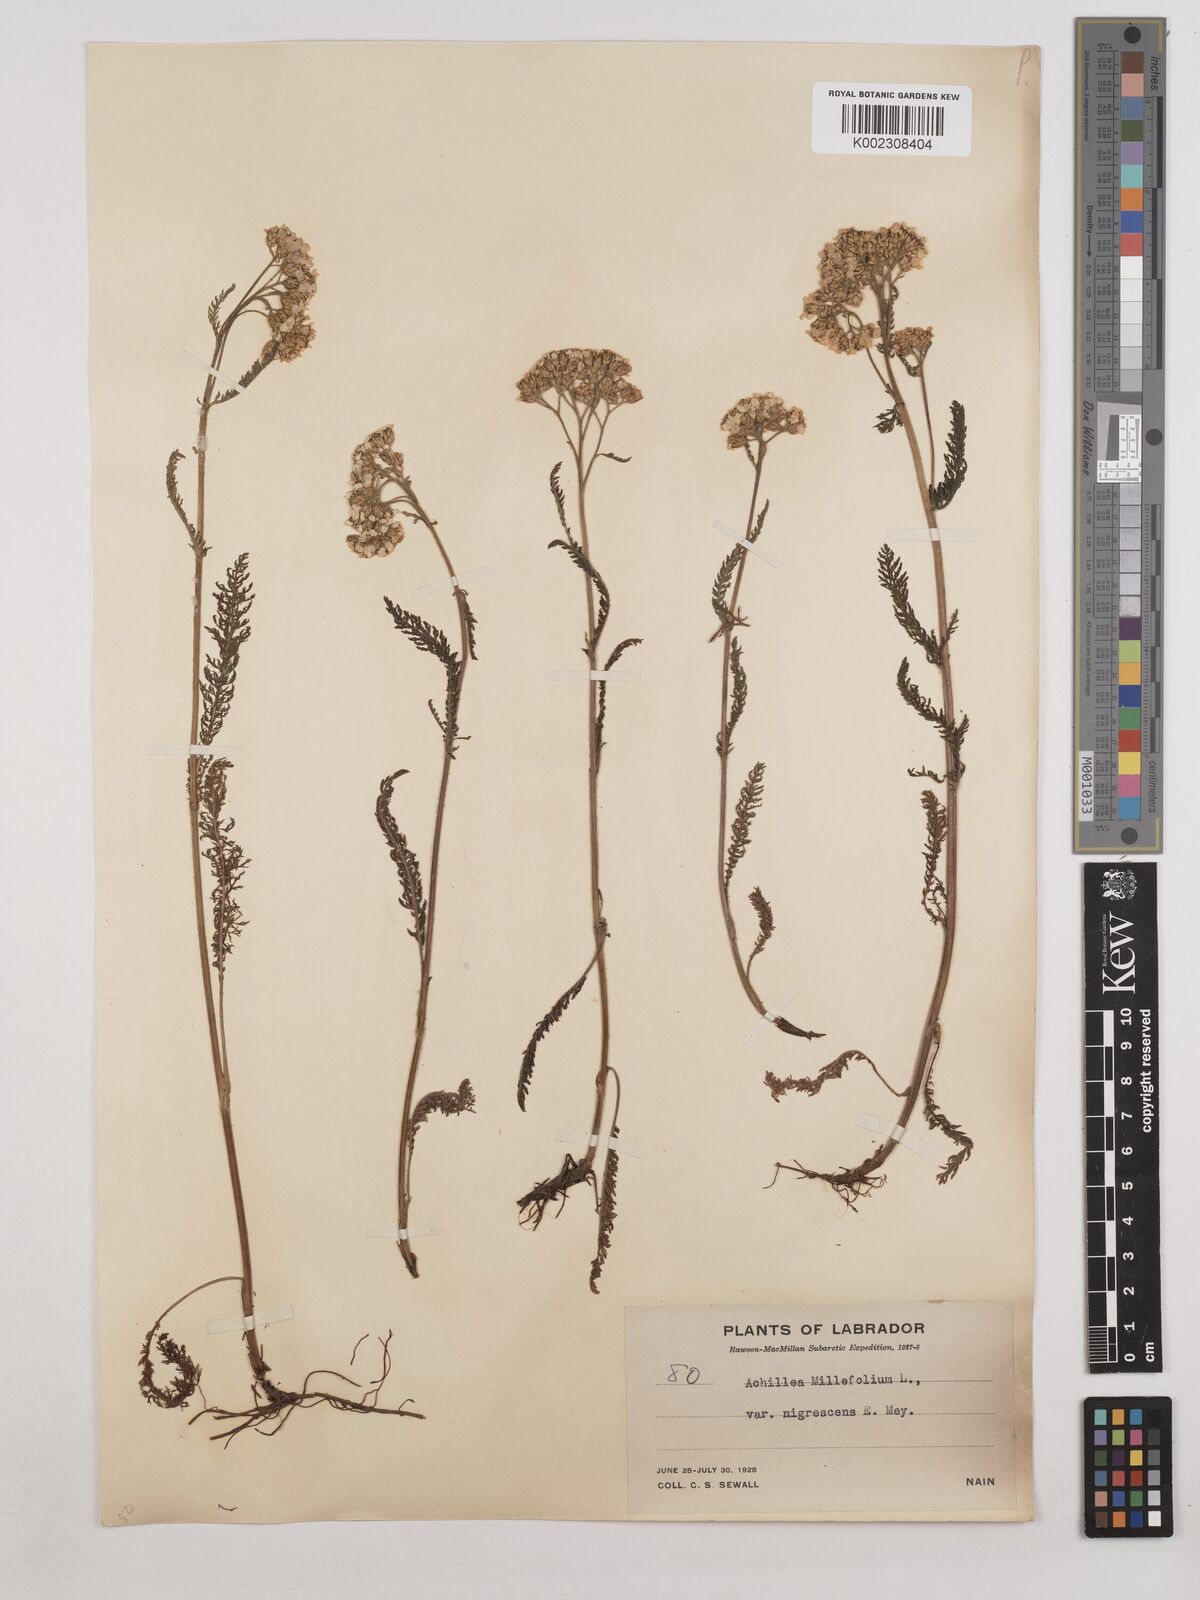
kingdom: Plantae
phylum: Tracheophyta
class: Magnoliopsida
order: Asterales
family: Asteraceae
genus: Achillea
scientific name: Achillea millefolium
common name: Yarrow
